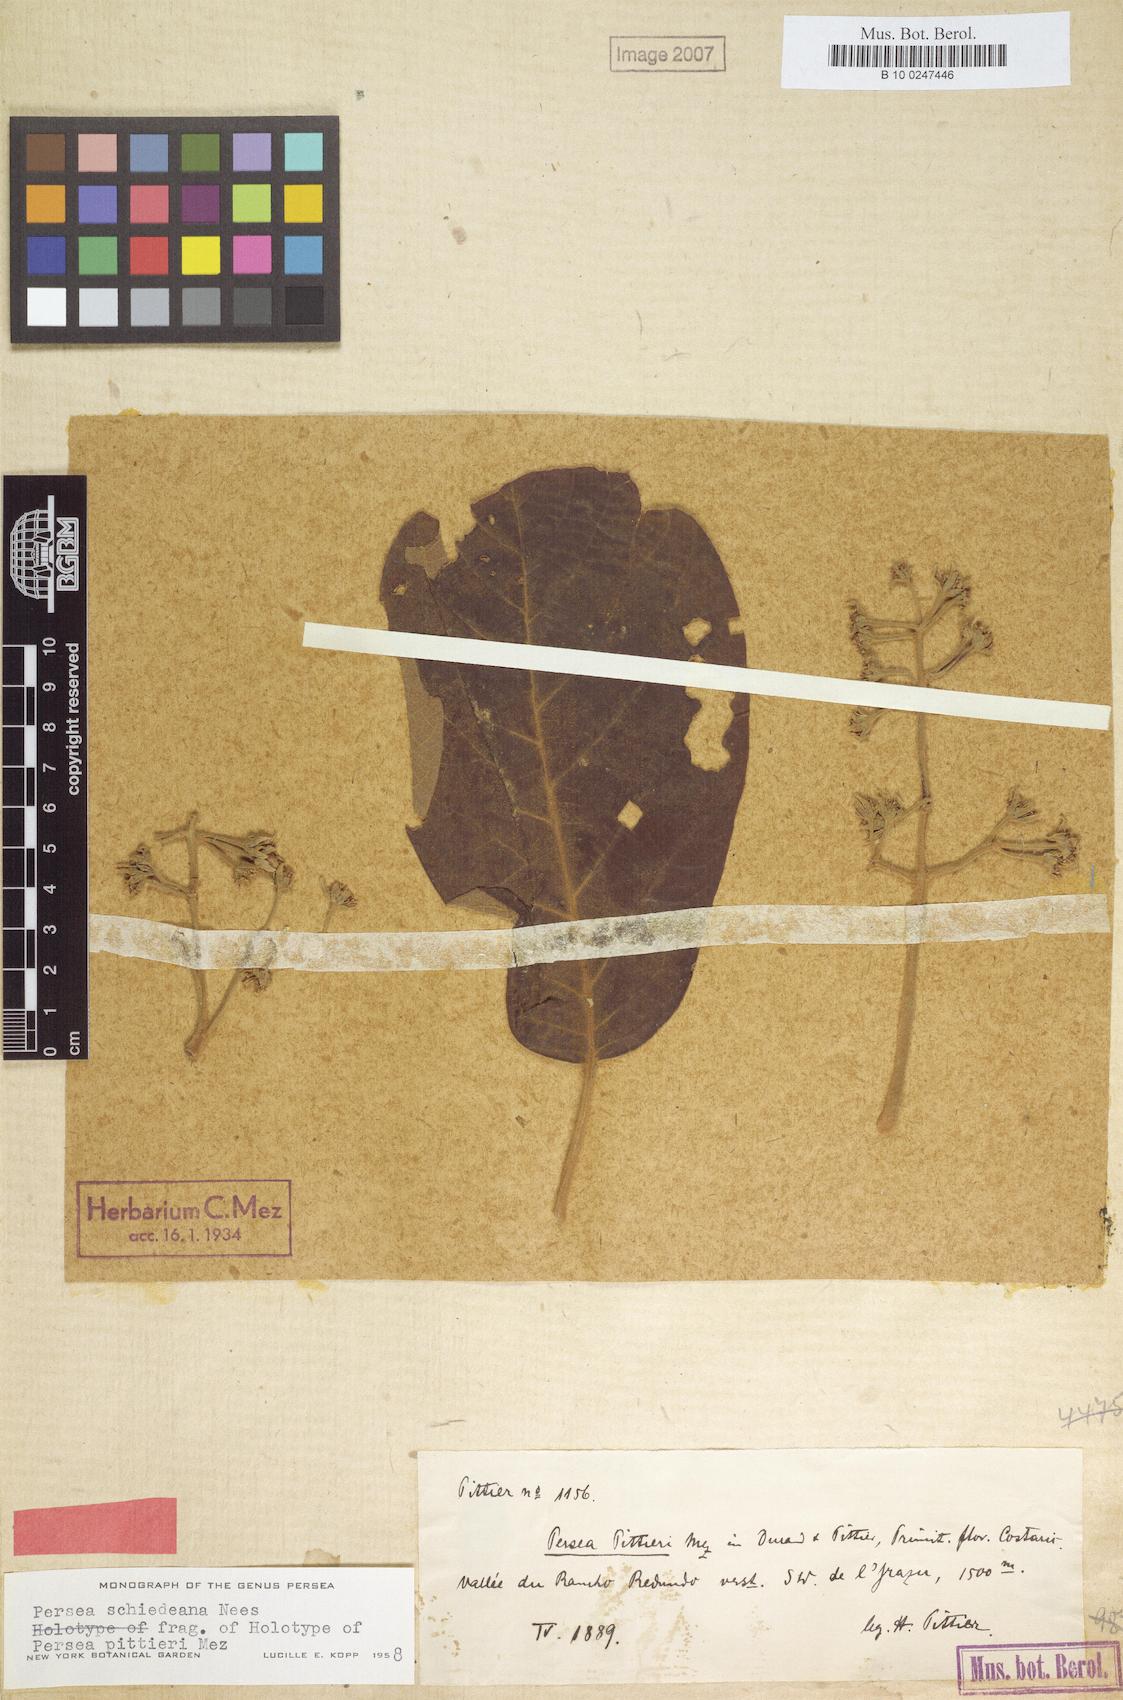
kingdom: Plantae
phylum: Tracheophyta
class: Magnoliopsida
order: Laurales
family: Lauraceae
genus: Persea
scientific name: Persea schiedeana
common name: Coyo avocado
